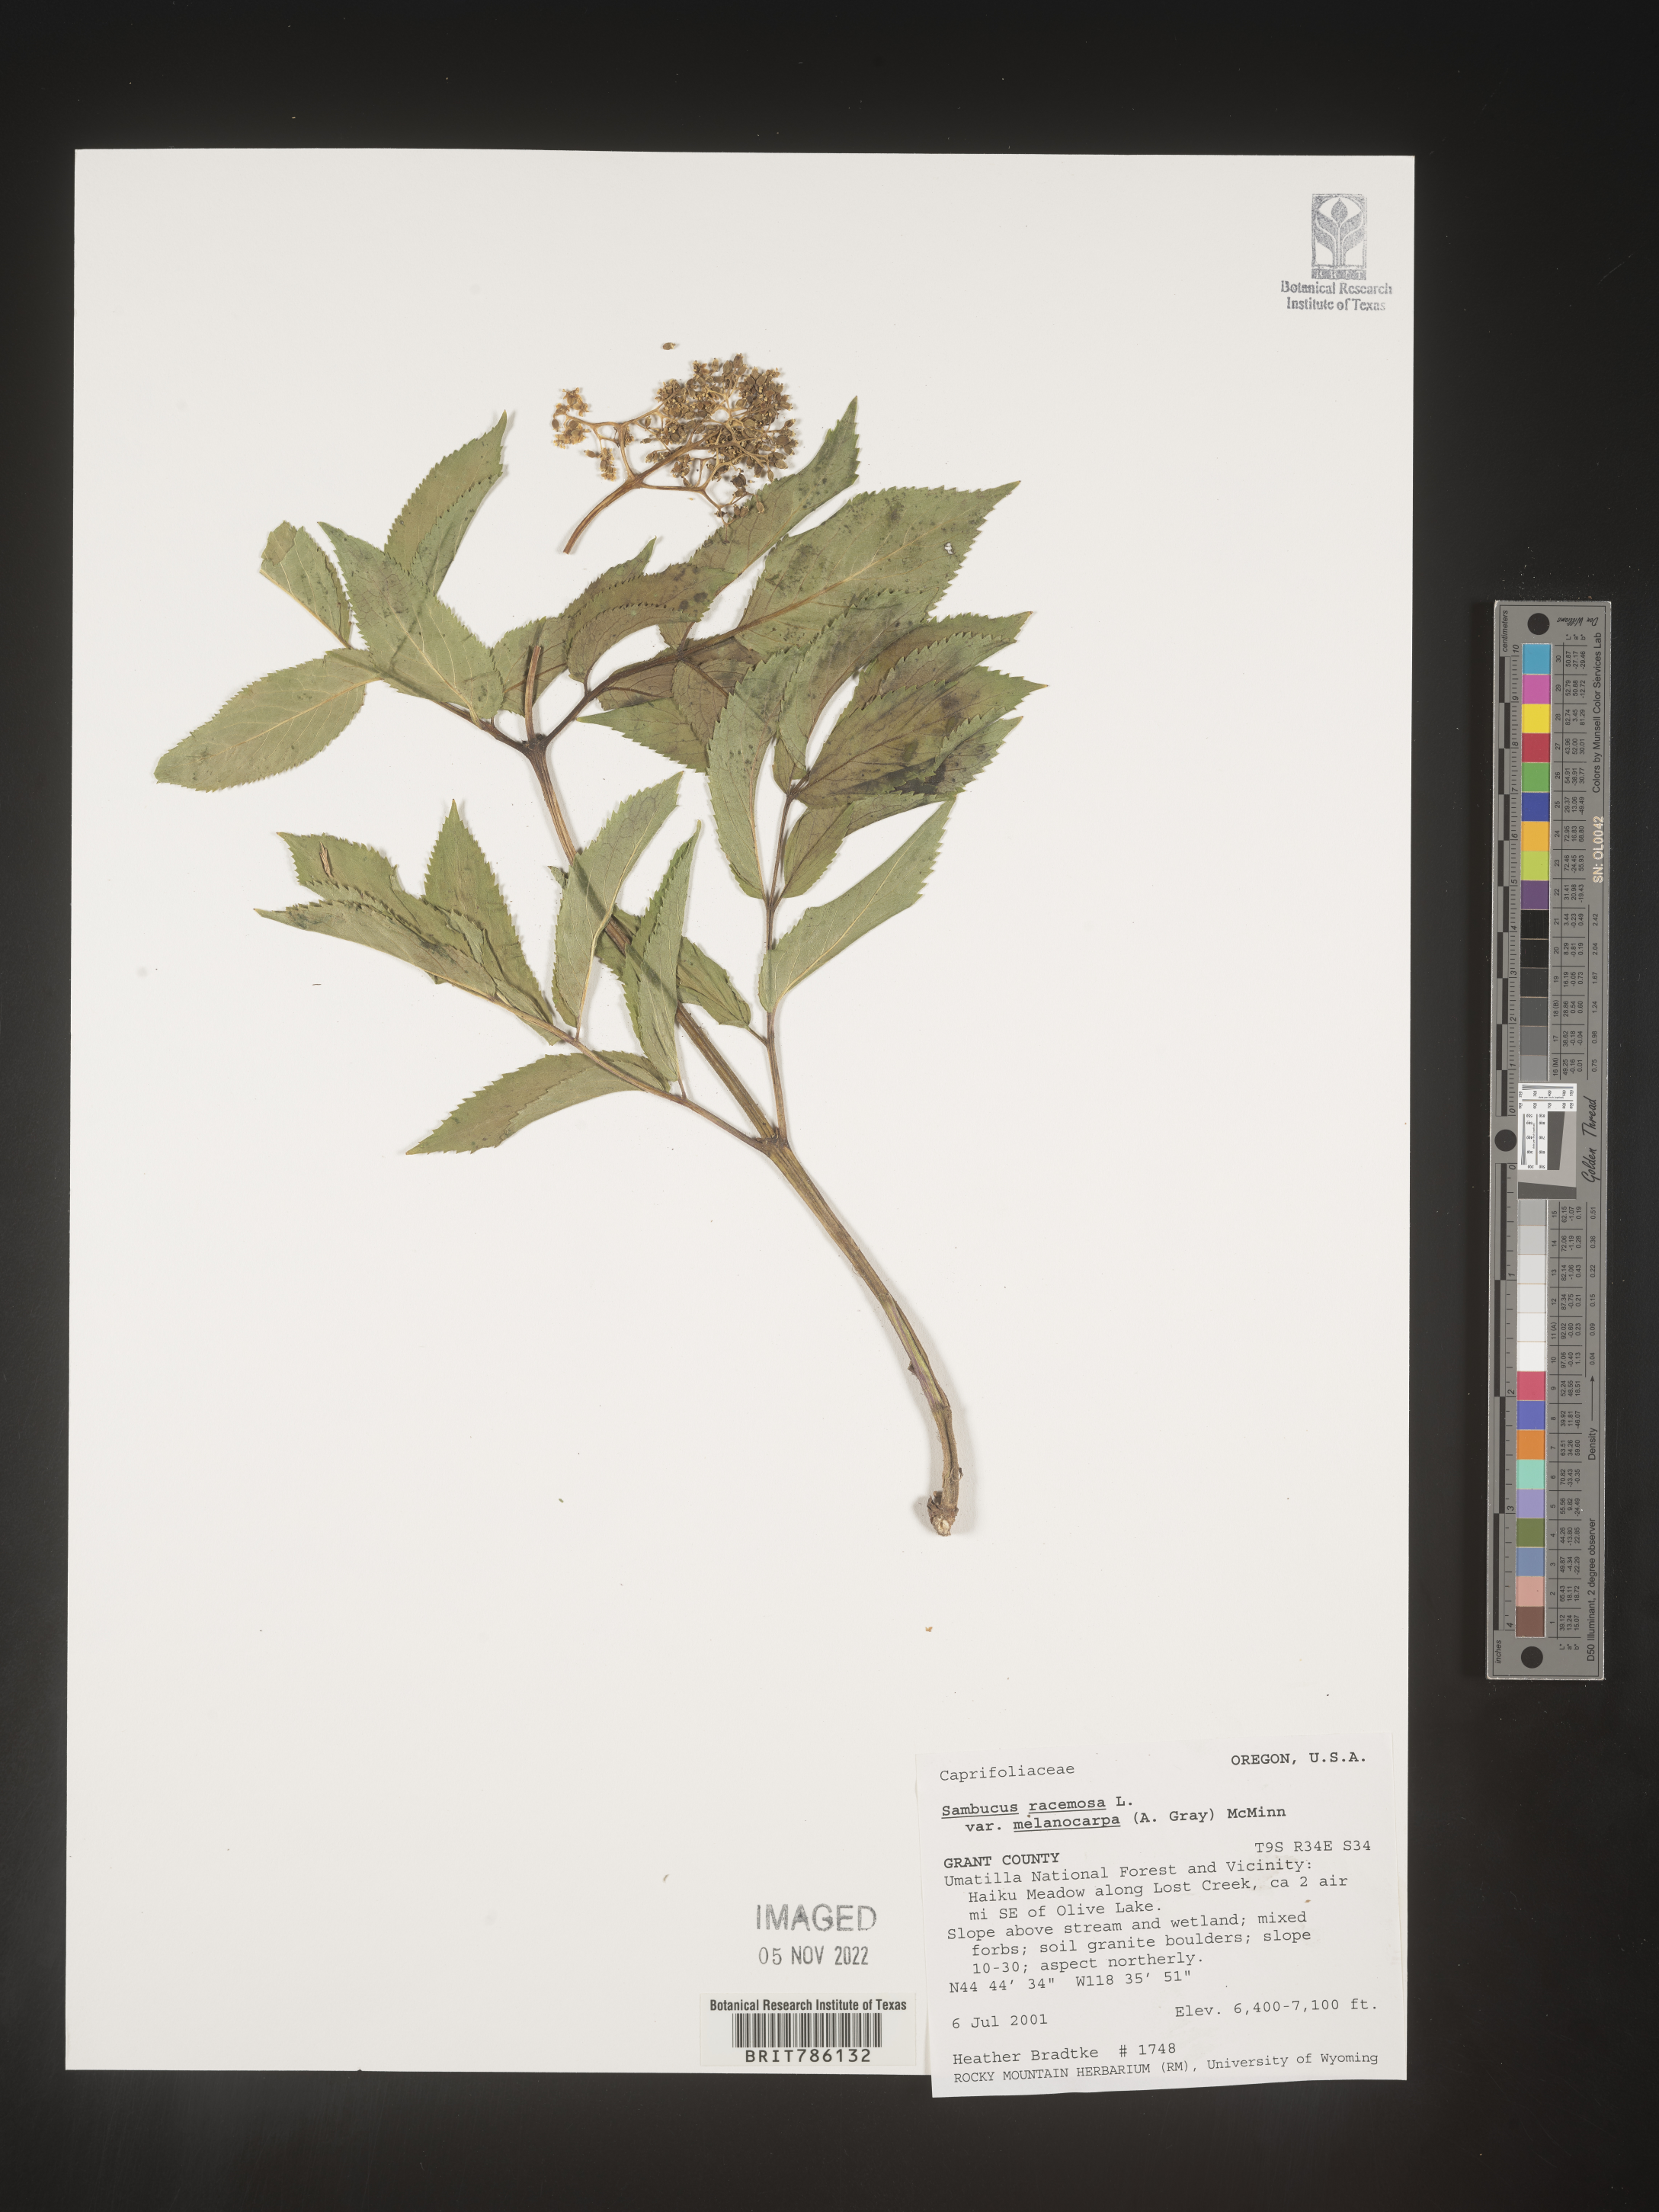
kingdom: Plantae
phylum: Tracheophyta
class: Magnoliopsida
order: Dipsacales
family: Viburnaceae
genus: Sambucus
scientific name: Sambucus
